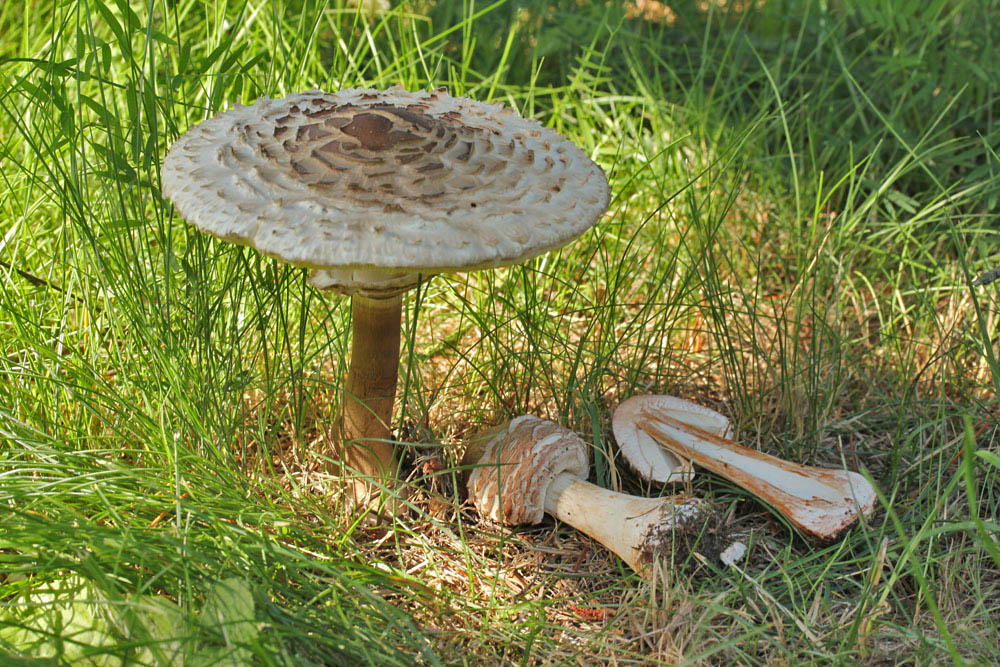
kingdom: Fungi
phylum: Basidiomycota
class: Agaricomycetes
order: Agaricales
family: Agaricaceae
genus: Chlorophyllum
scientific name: Chlorophyllum rhacodes
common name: ægte rabarberhat
